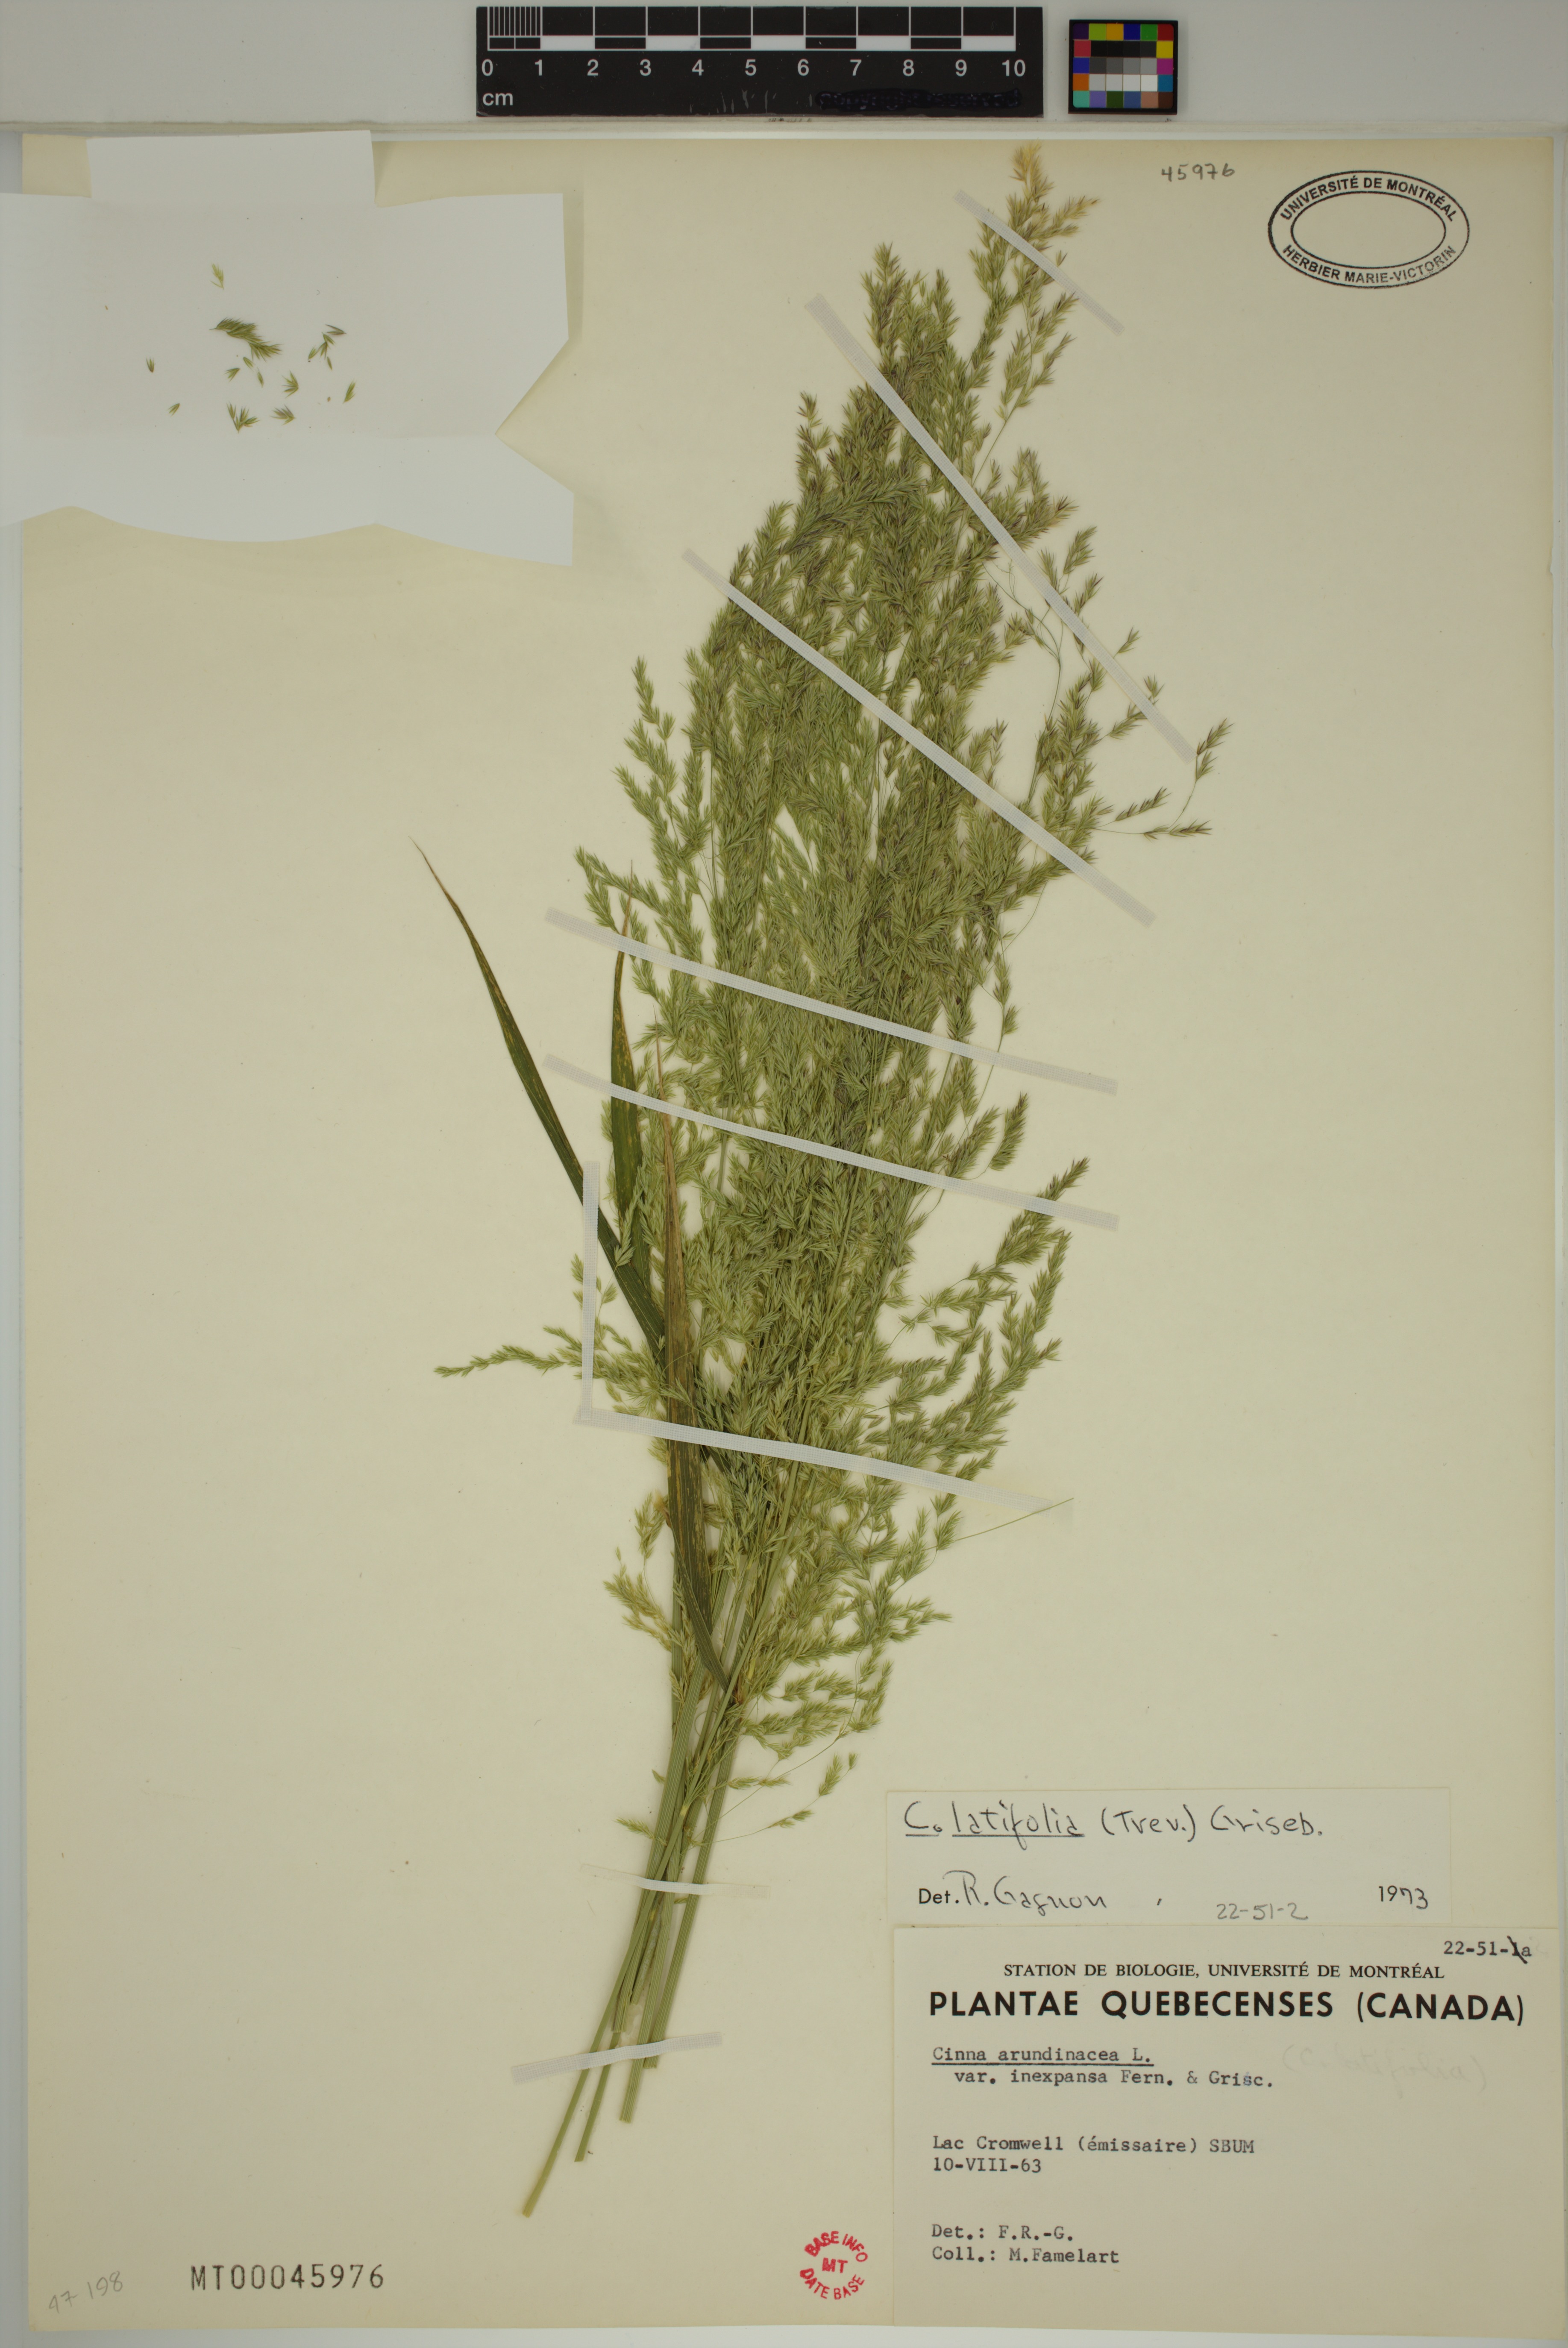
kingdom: Plantae
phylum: Tracheophyta
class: Liliopsida
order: Poales
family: Poaceae
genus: Cinna
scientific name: Cinna latifolia
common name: Drooping woodreed
